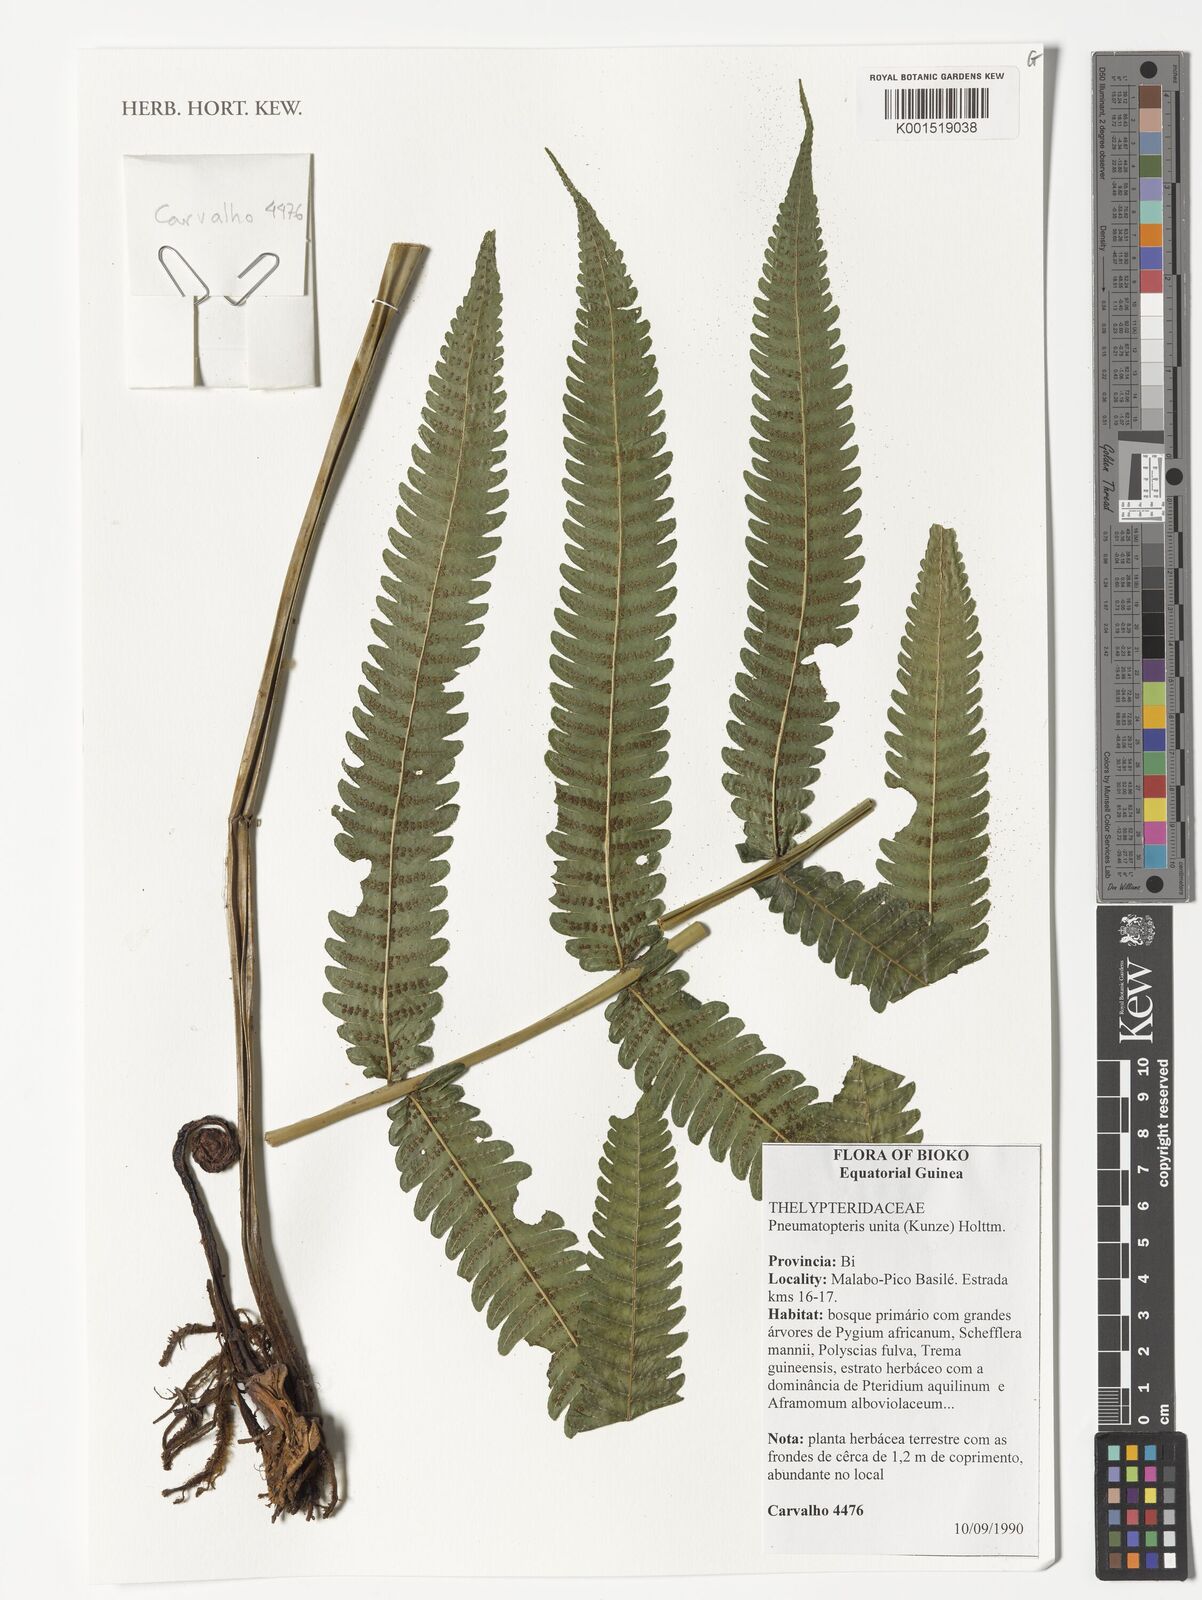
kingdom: Plantae
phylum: Tracheophyta
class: Polypodiopsida
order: Polypodiales
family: Thelypteridaceae
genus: Pneumatopteris
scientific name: Pneumatopteris
